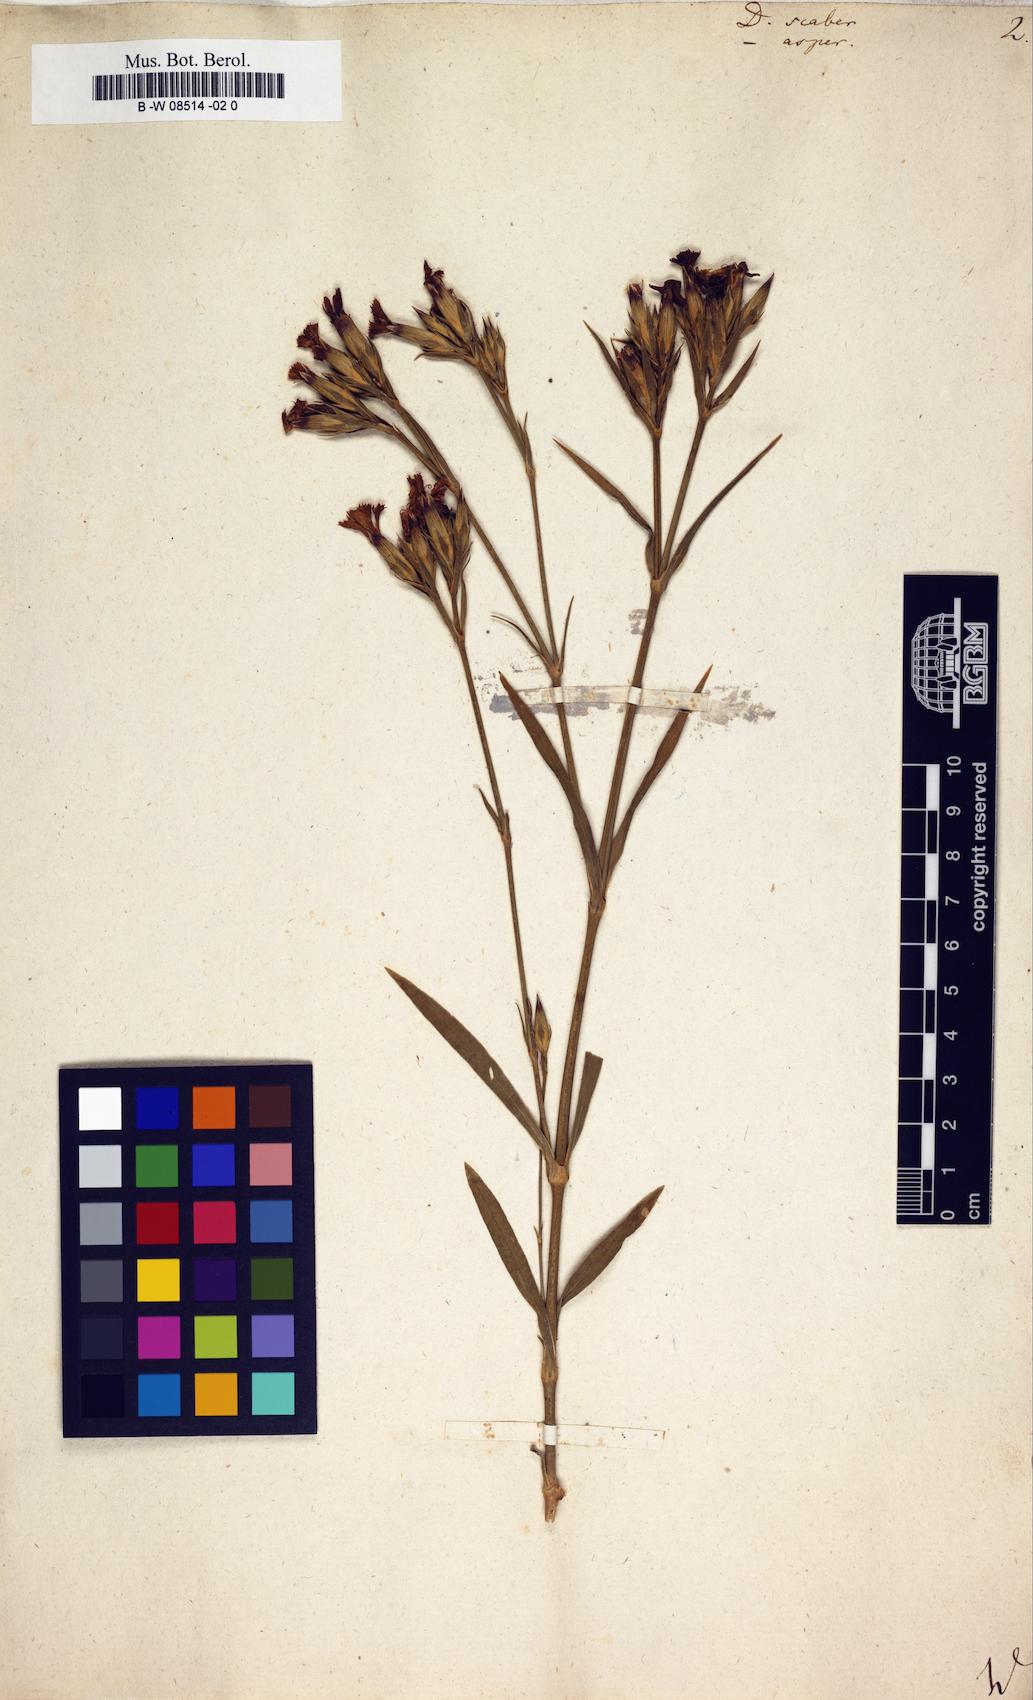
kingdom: Plantae
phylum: Tracheophyta
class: Magnoliopsida
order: Caryophyllales
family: Caryophyllaceae
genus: Dianthus
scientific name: Dianthus scaber
